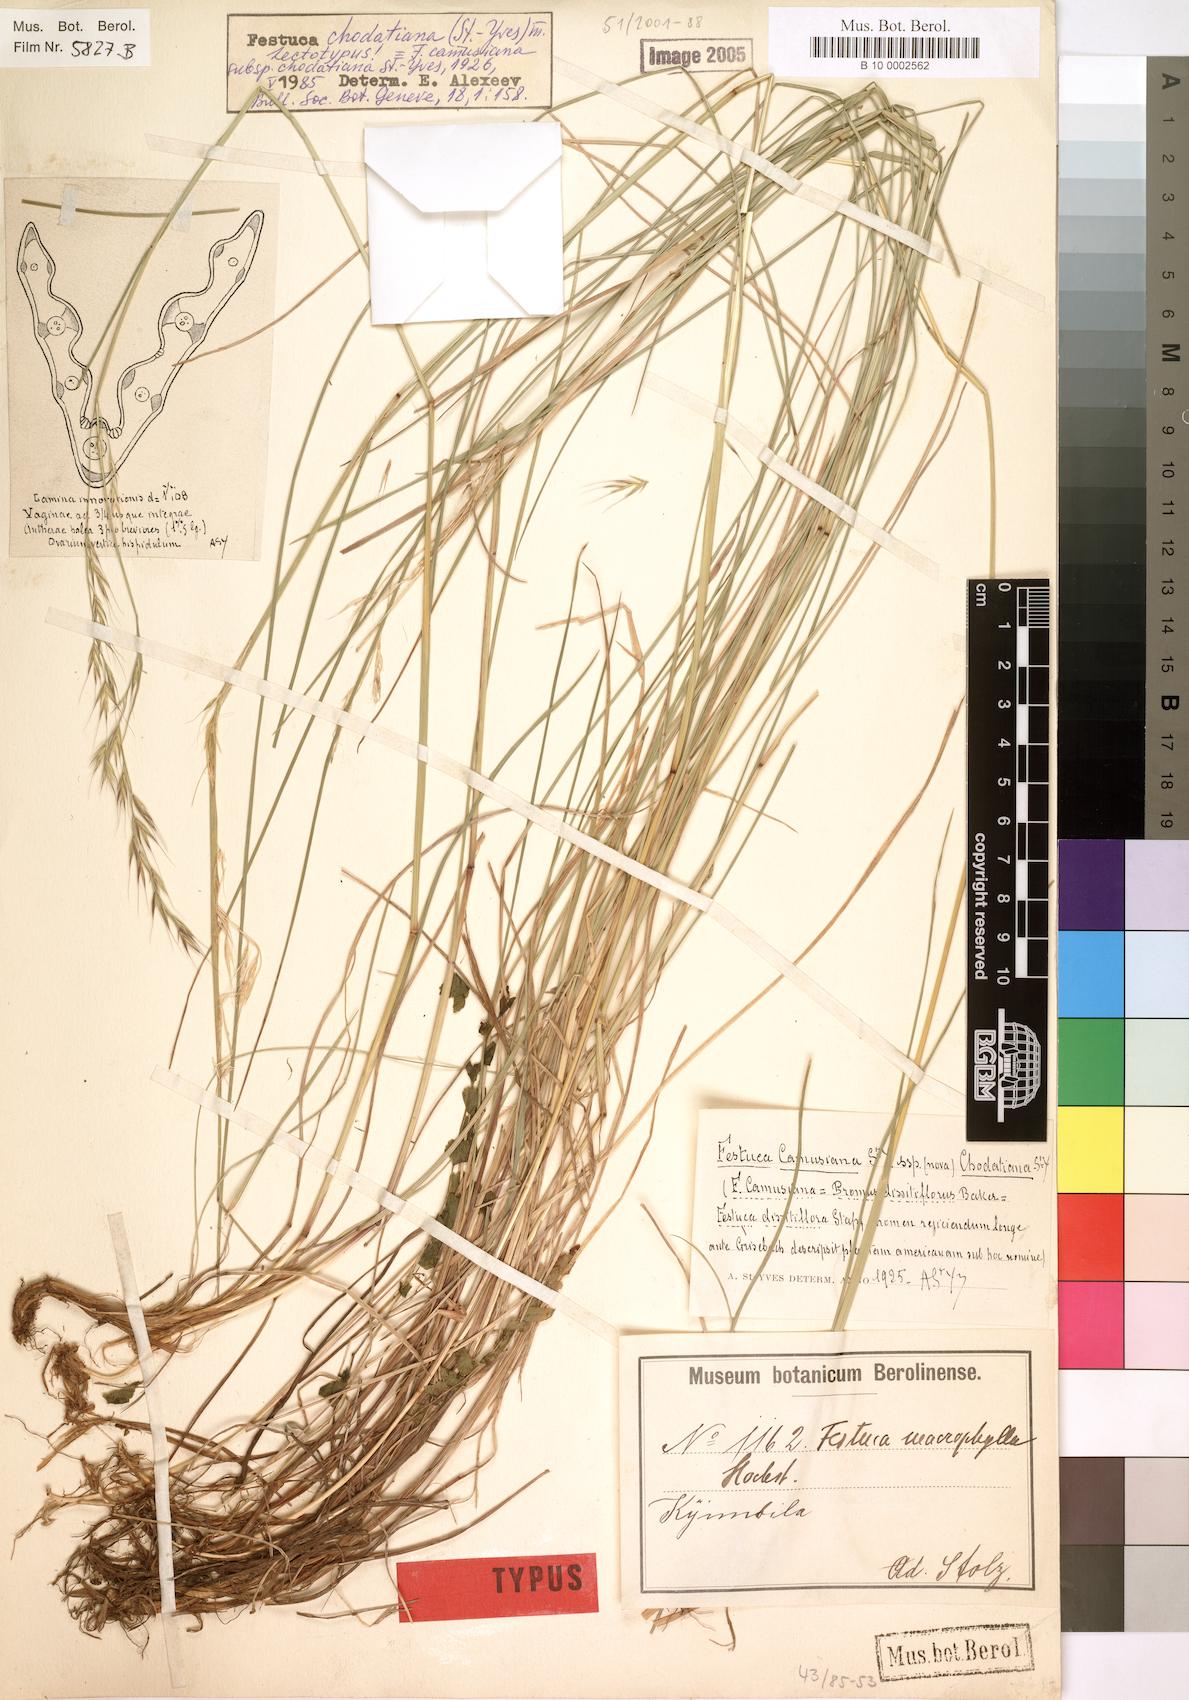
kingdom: Plantae
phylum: Tracheophyta
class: Liliopsida
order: Poales
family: Poaceae
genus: Festuca
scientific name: Festuca chodatiana
